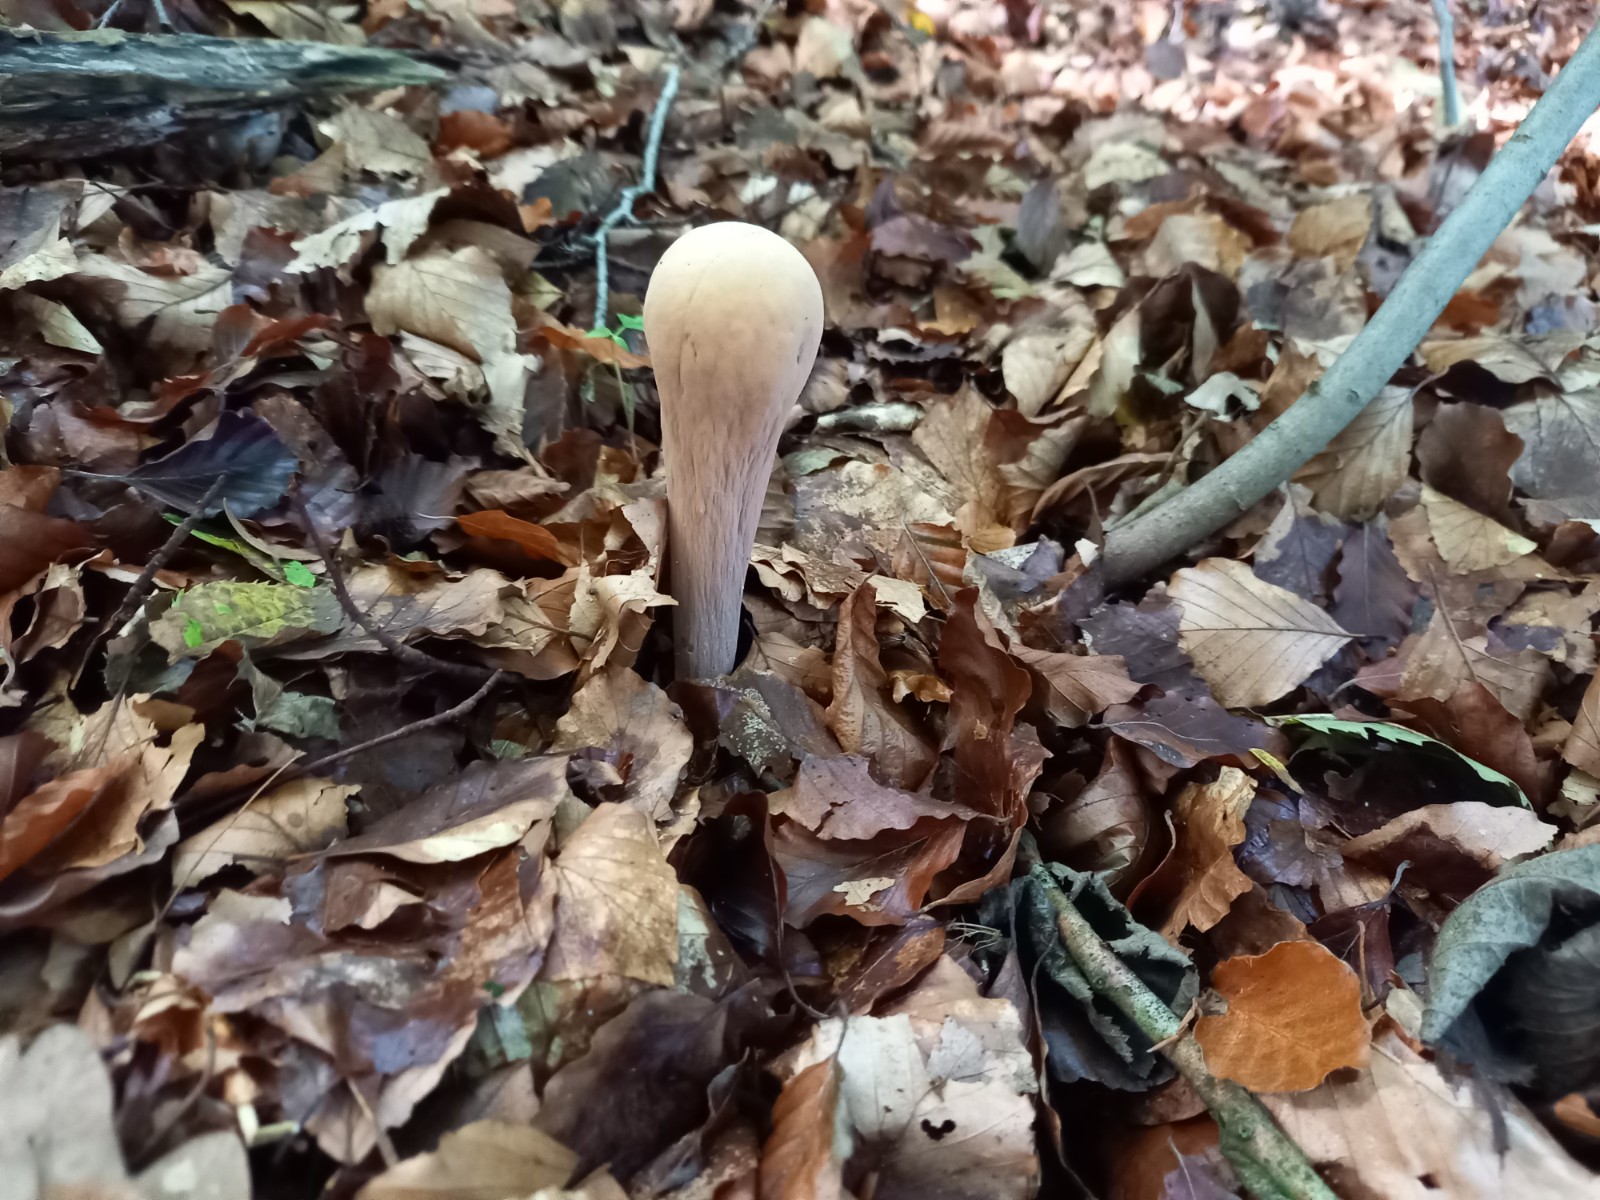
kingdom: Fungi
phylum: Basidiomycota
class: Agaricomycetes
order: Gomphales
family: Clavariadelphaceae
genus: Clavariadelphus
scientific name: Clavariadelphus pistillaris
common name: herkules-kæmpekølle
